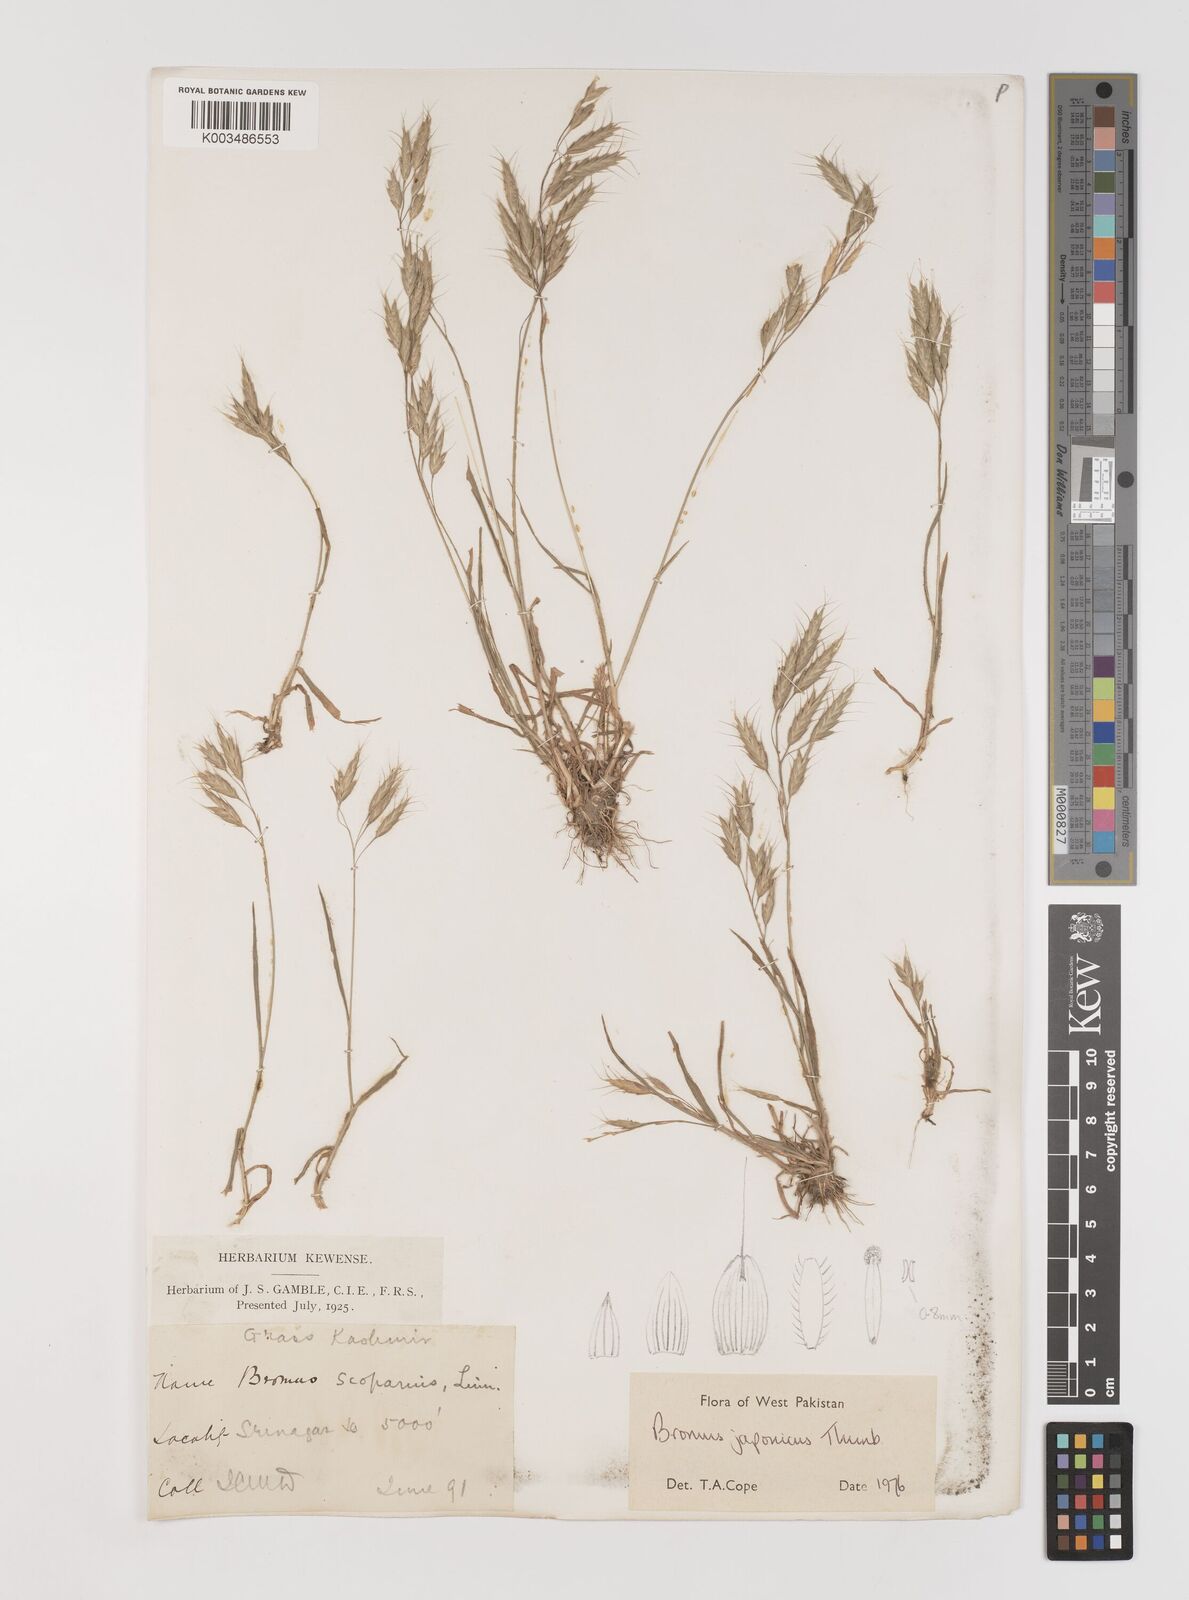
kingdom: Plantae
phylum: Tracheophyta
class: Liliopsida
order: Poales
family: Poaceae
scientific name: Poaceae
